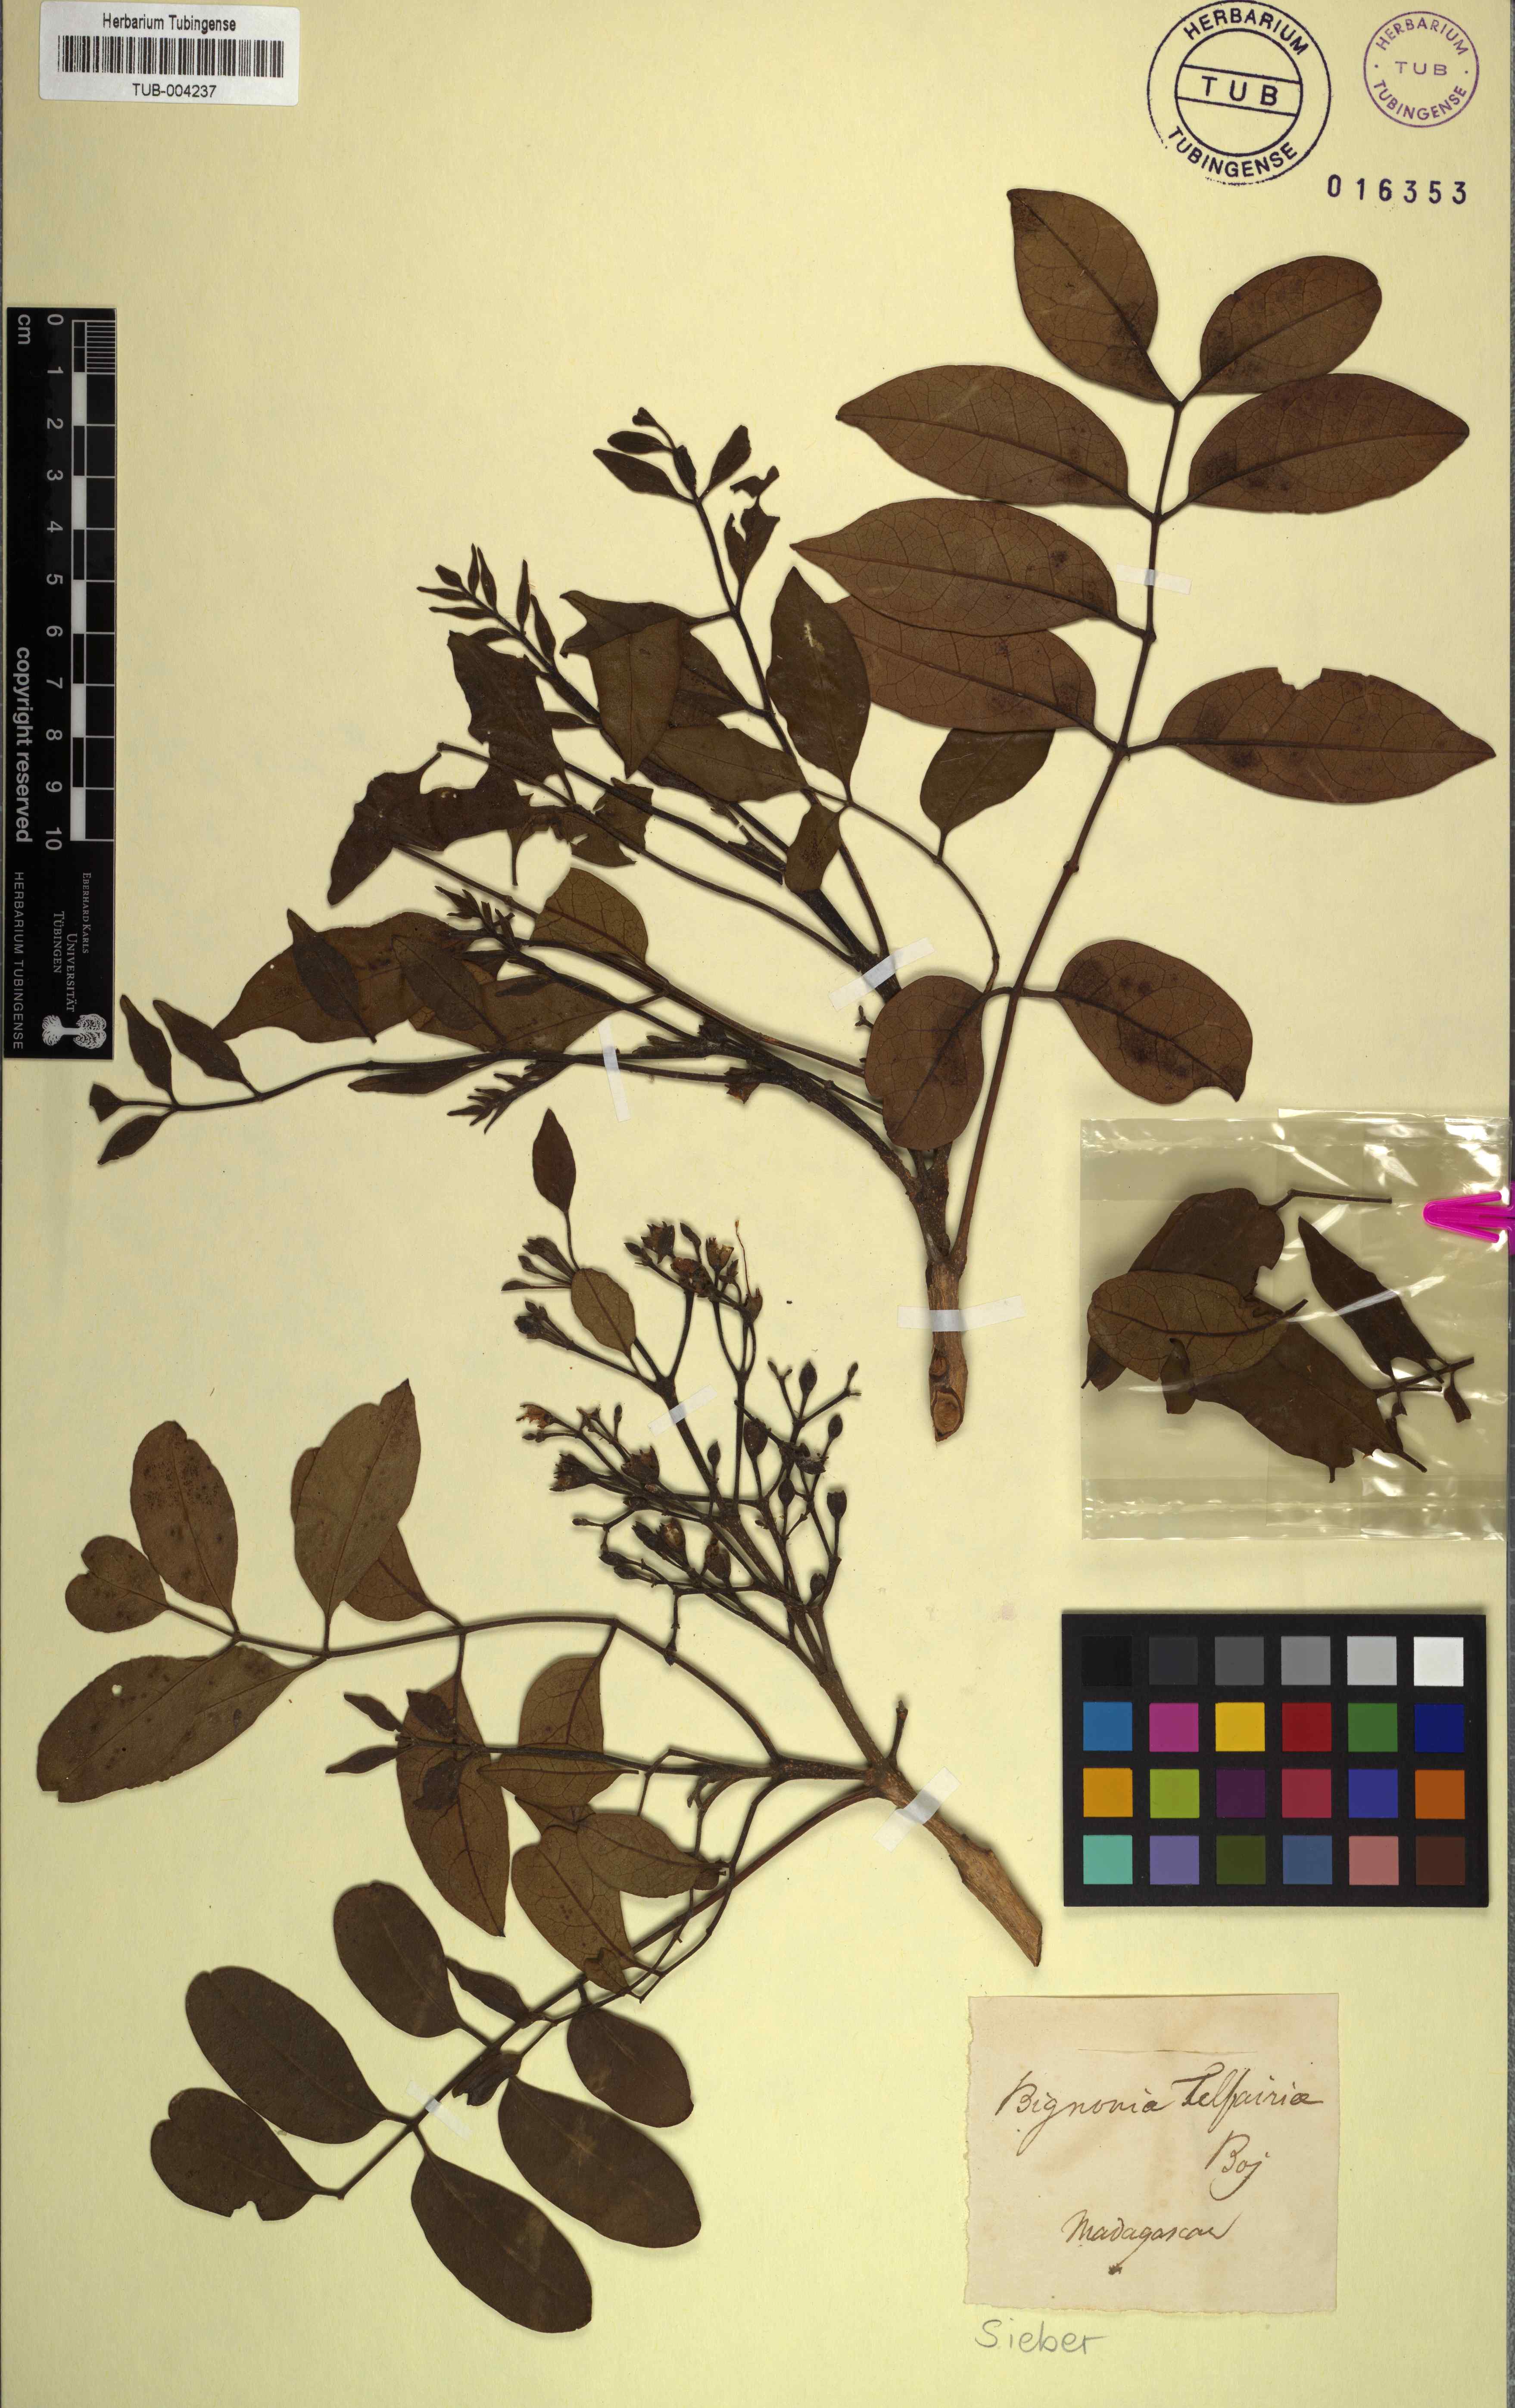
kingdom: Plantae
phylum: Tracheophyta
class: Magnoliopsida
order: Lamiales
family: Bignoniaceae
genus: Rhodocolea
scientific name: Rhodocolea telfairiae
